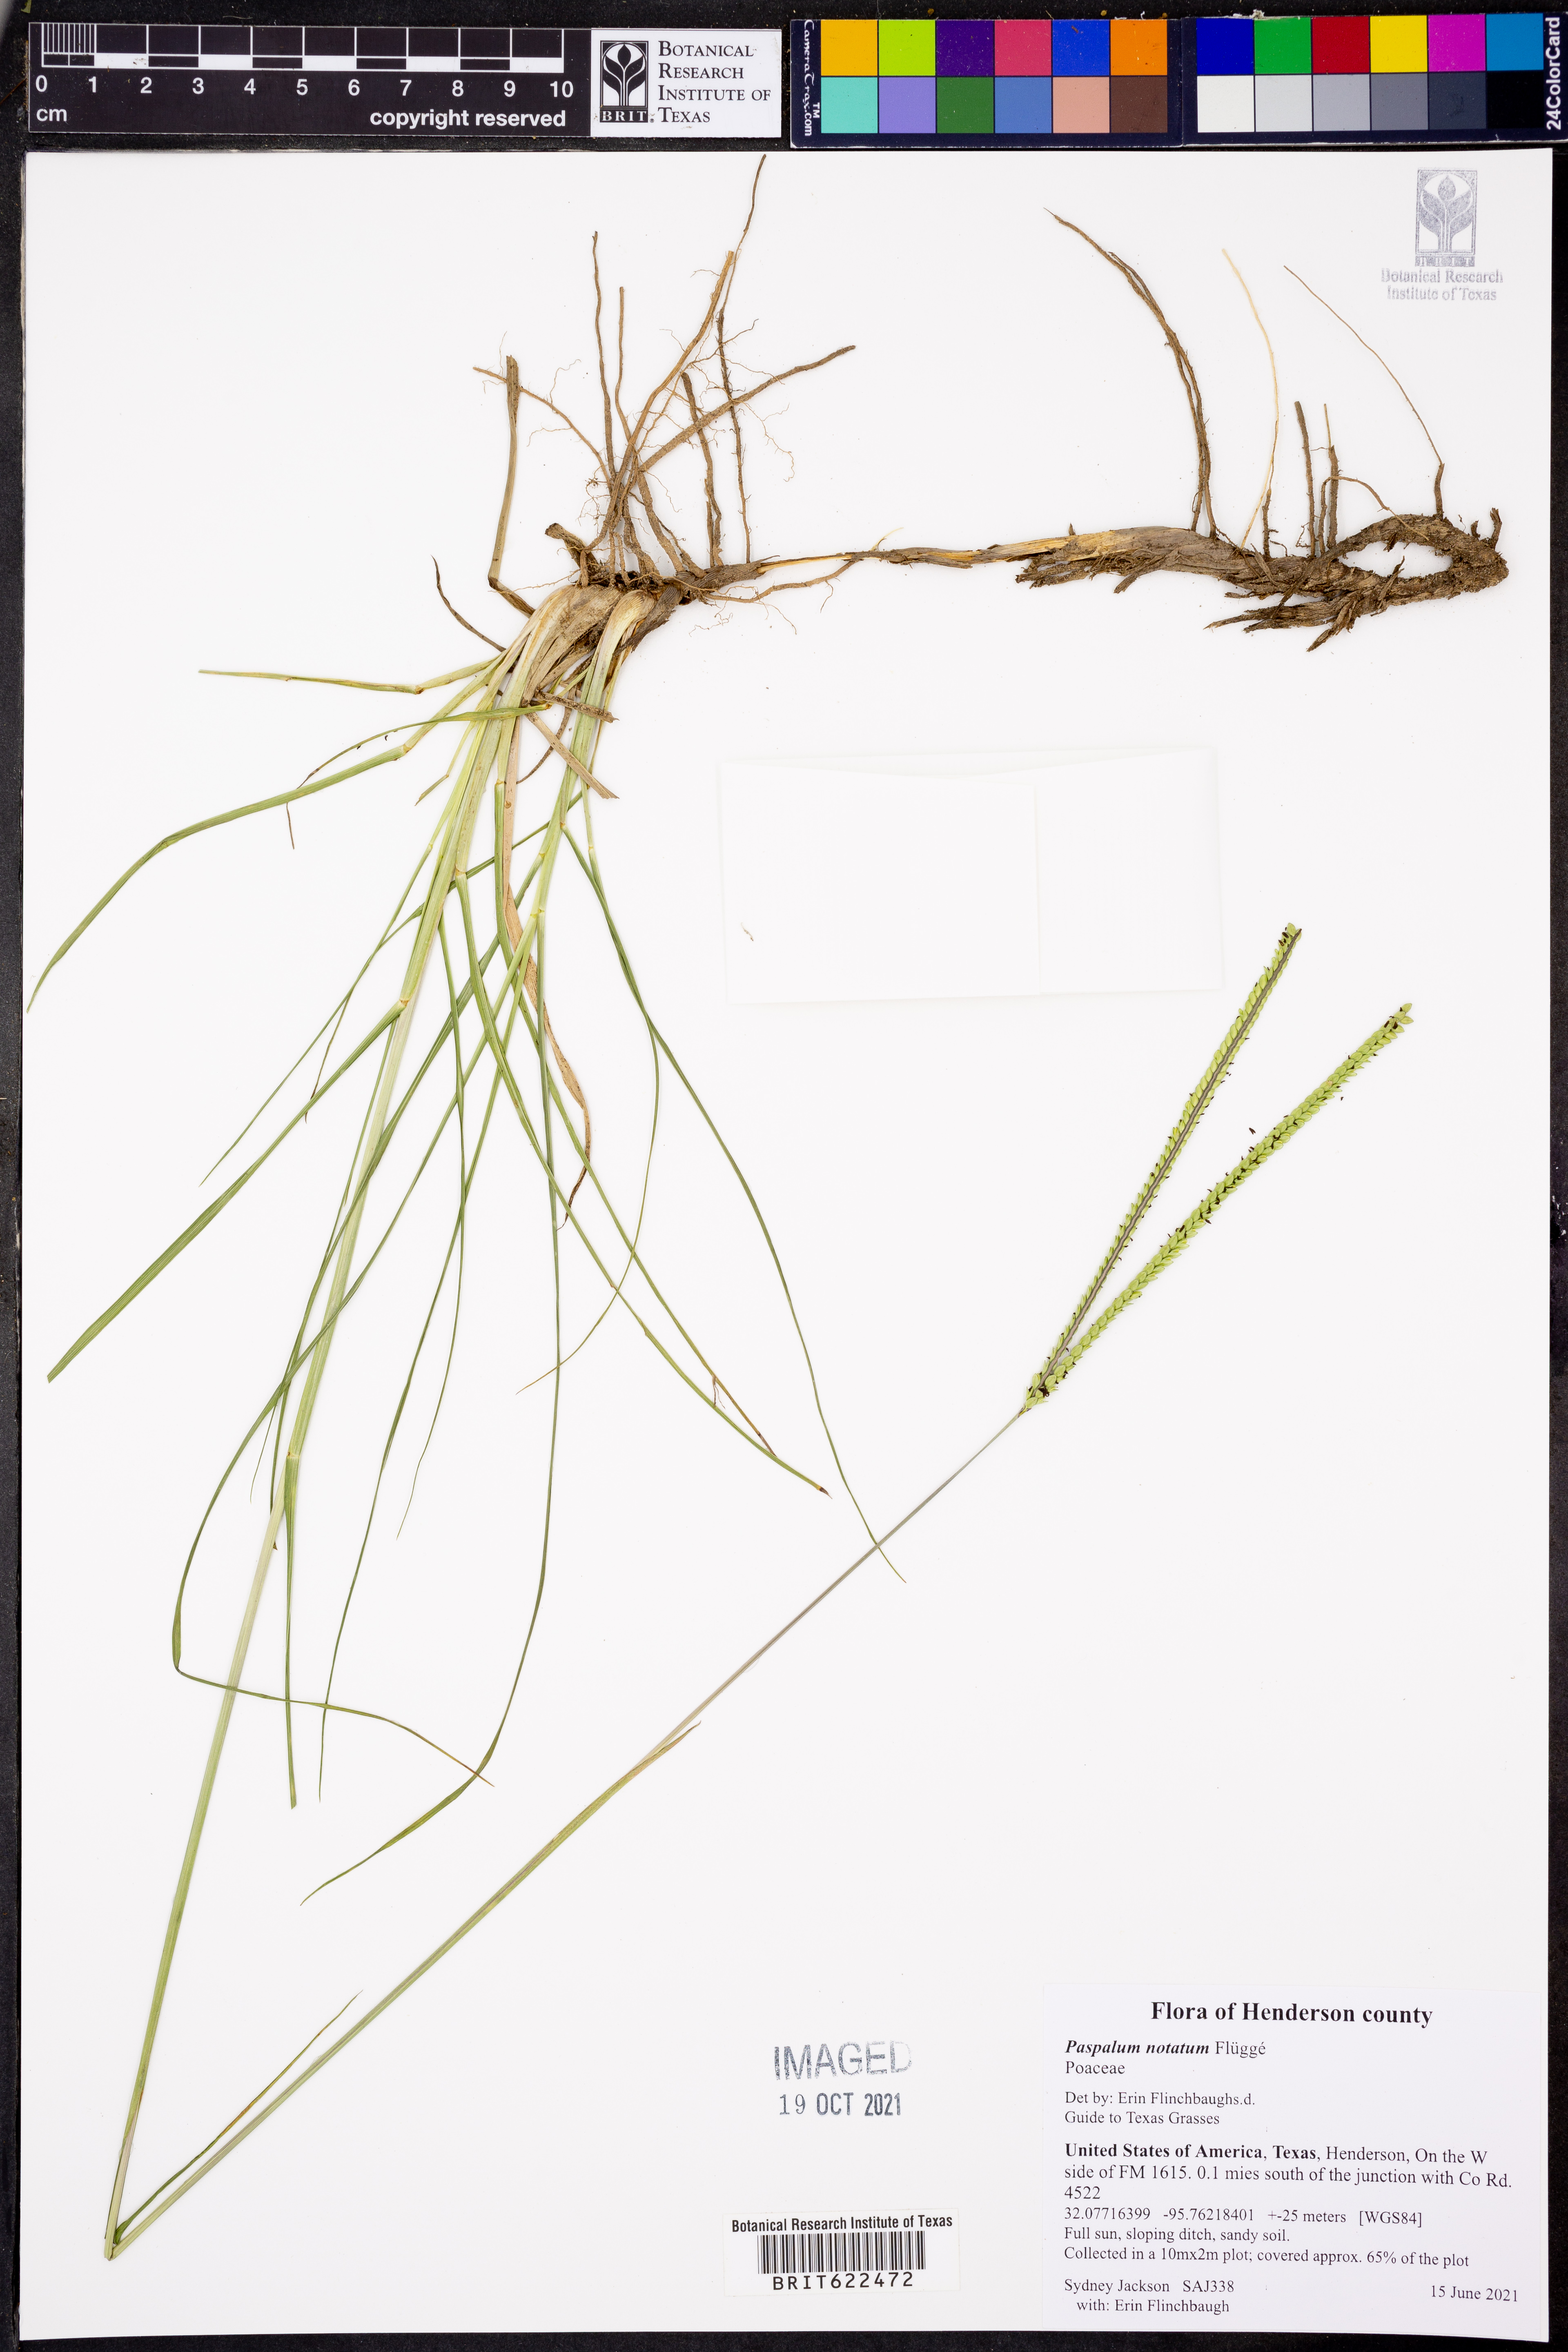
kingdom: Plantae
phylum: Tracheophyta
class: Liliopsida
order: Poales
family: Poaceae
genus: Paspalum
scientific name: Paspalum notatum
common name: Bahiagrass
